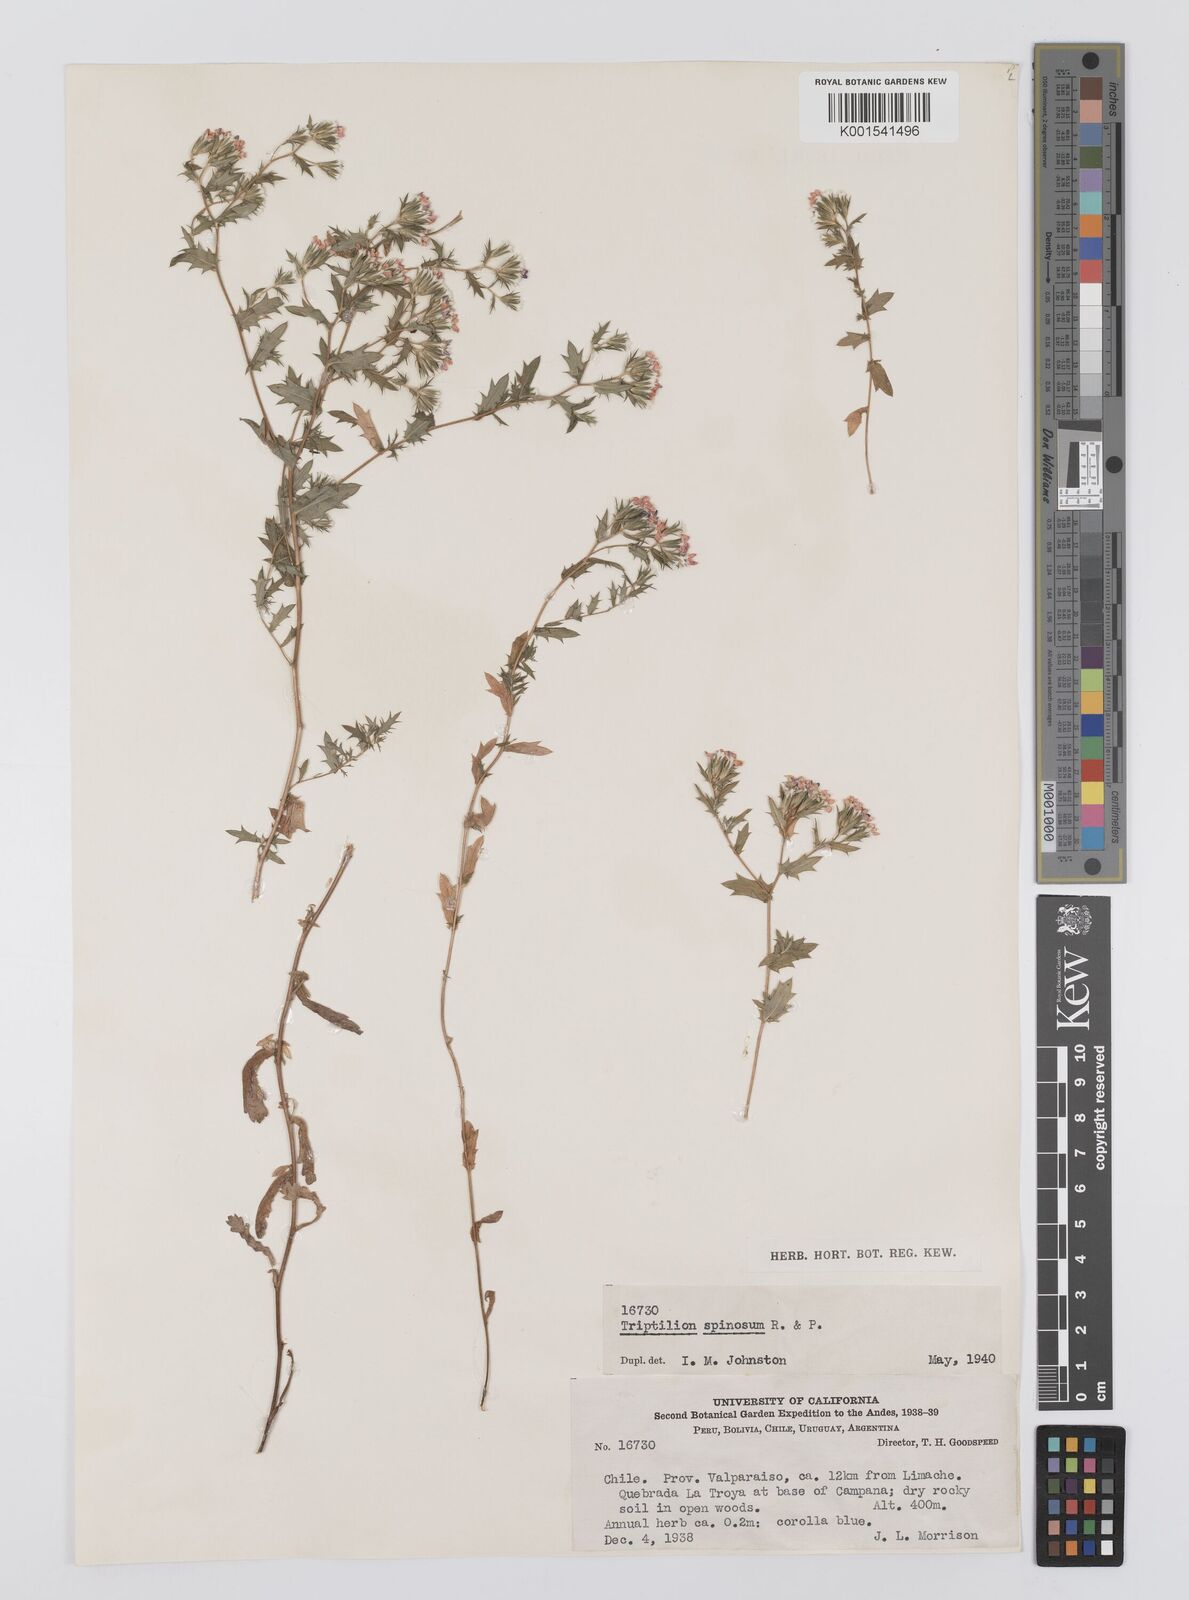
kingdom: Plantae
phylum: Tracheophyta
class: Magnoliopsida
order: Asterales
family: Asteraceae
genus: Triptilion
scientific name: Triptilion spinosum
